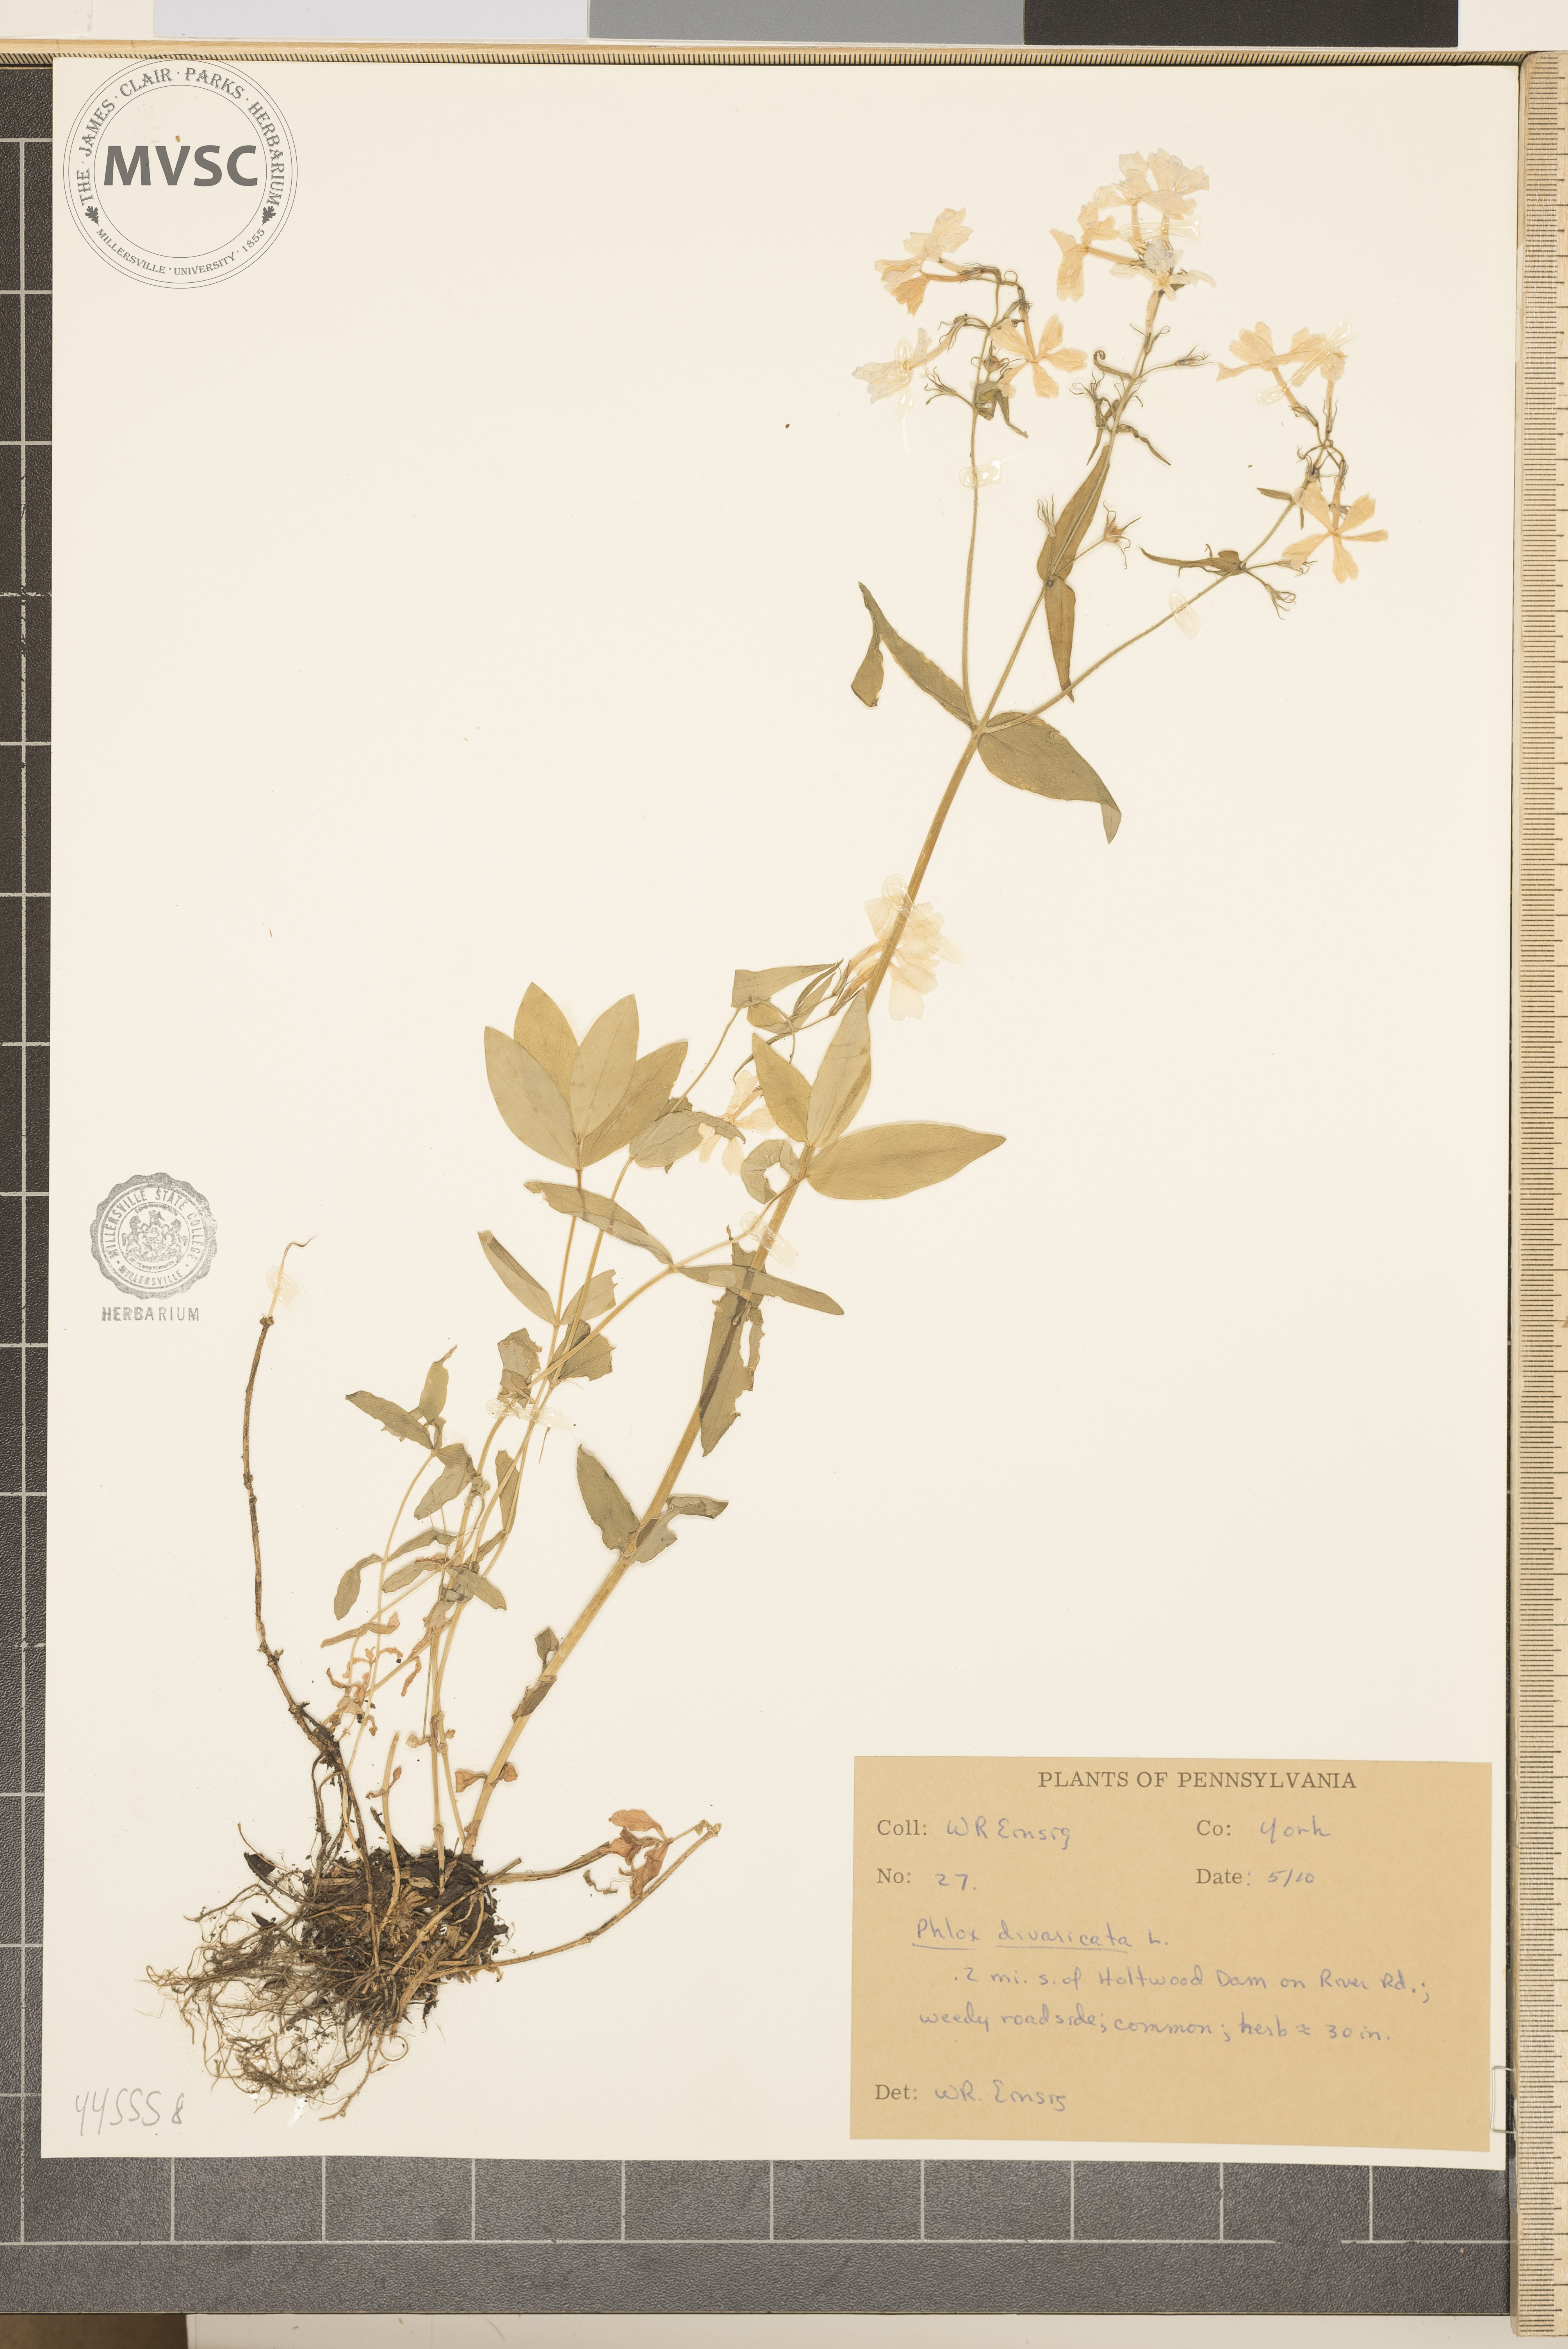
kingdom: Plantae
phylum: Tracheophyta
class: Magnoliopsida
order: Ericales
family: Polemoniaceae
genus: Phlox
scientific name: Phlox divaricata
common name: Blue phlox
